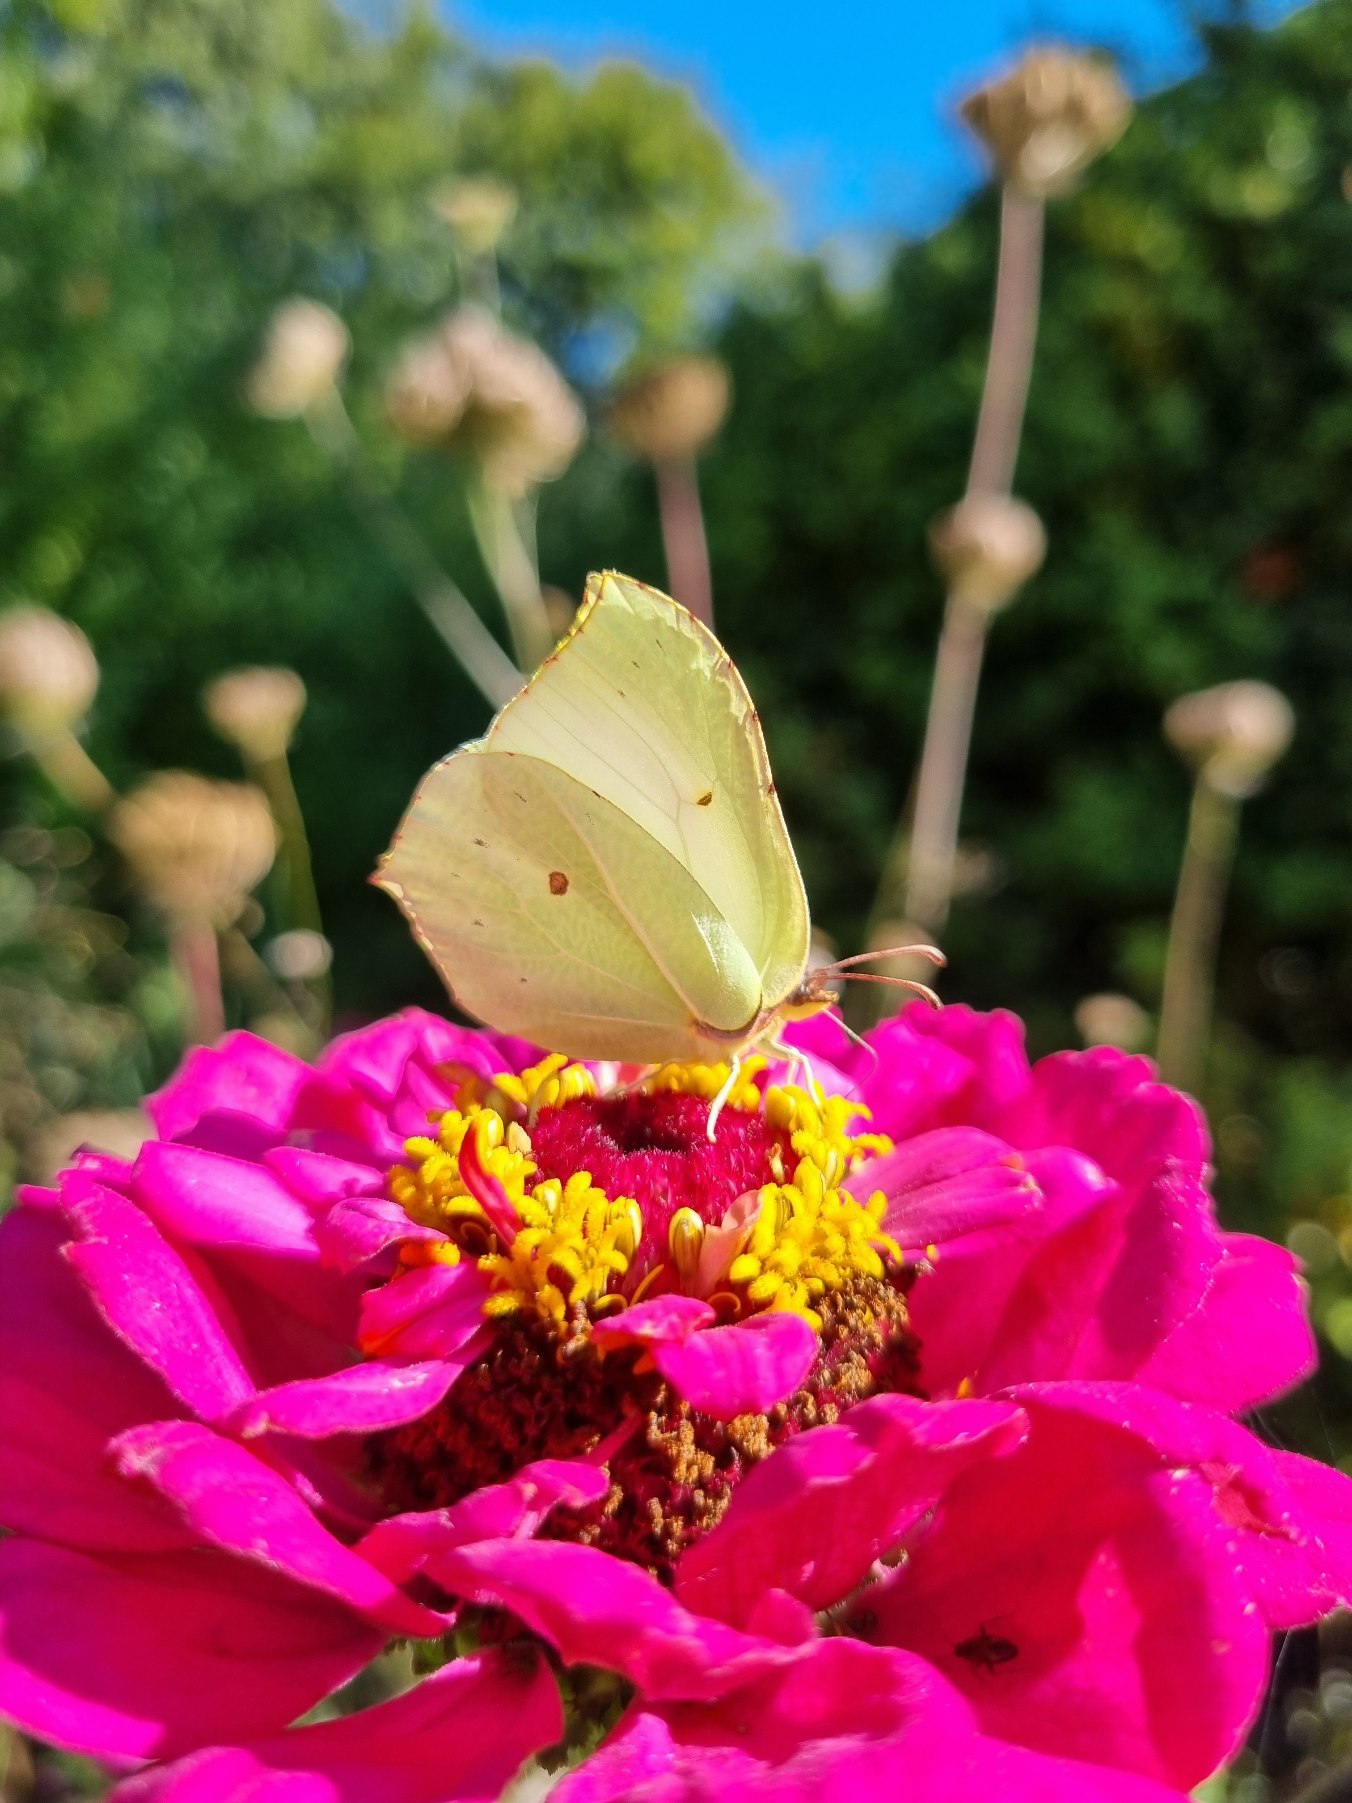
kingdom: Animalia
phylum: Arthropoda
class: Insecta
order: Lepidoptera
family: Pieridae
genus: Gonepteryx
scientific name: Gonepteryx rhamni
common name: Citronsommerfugl
